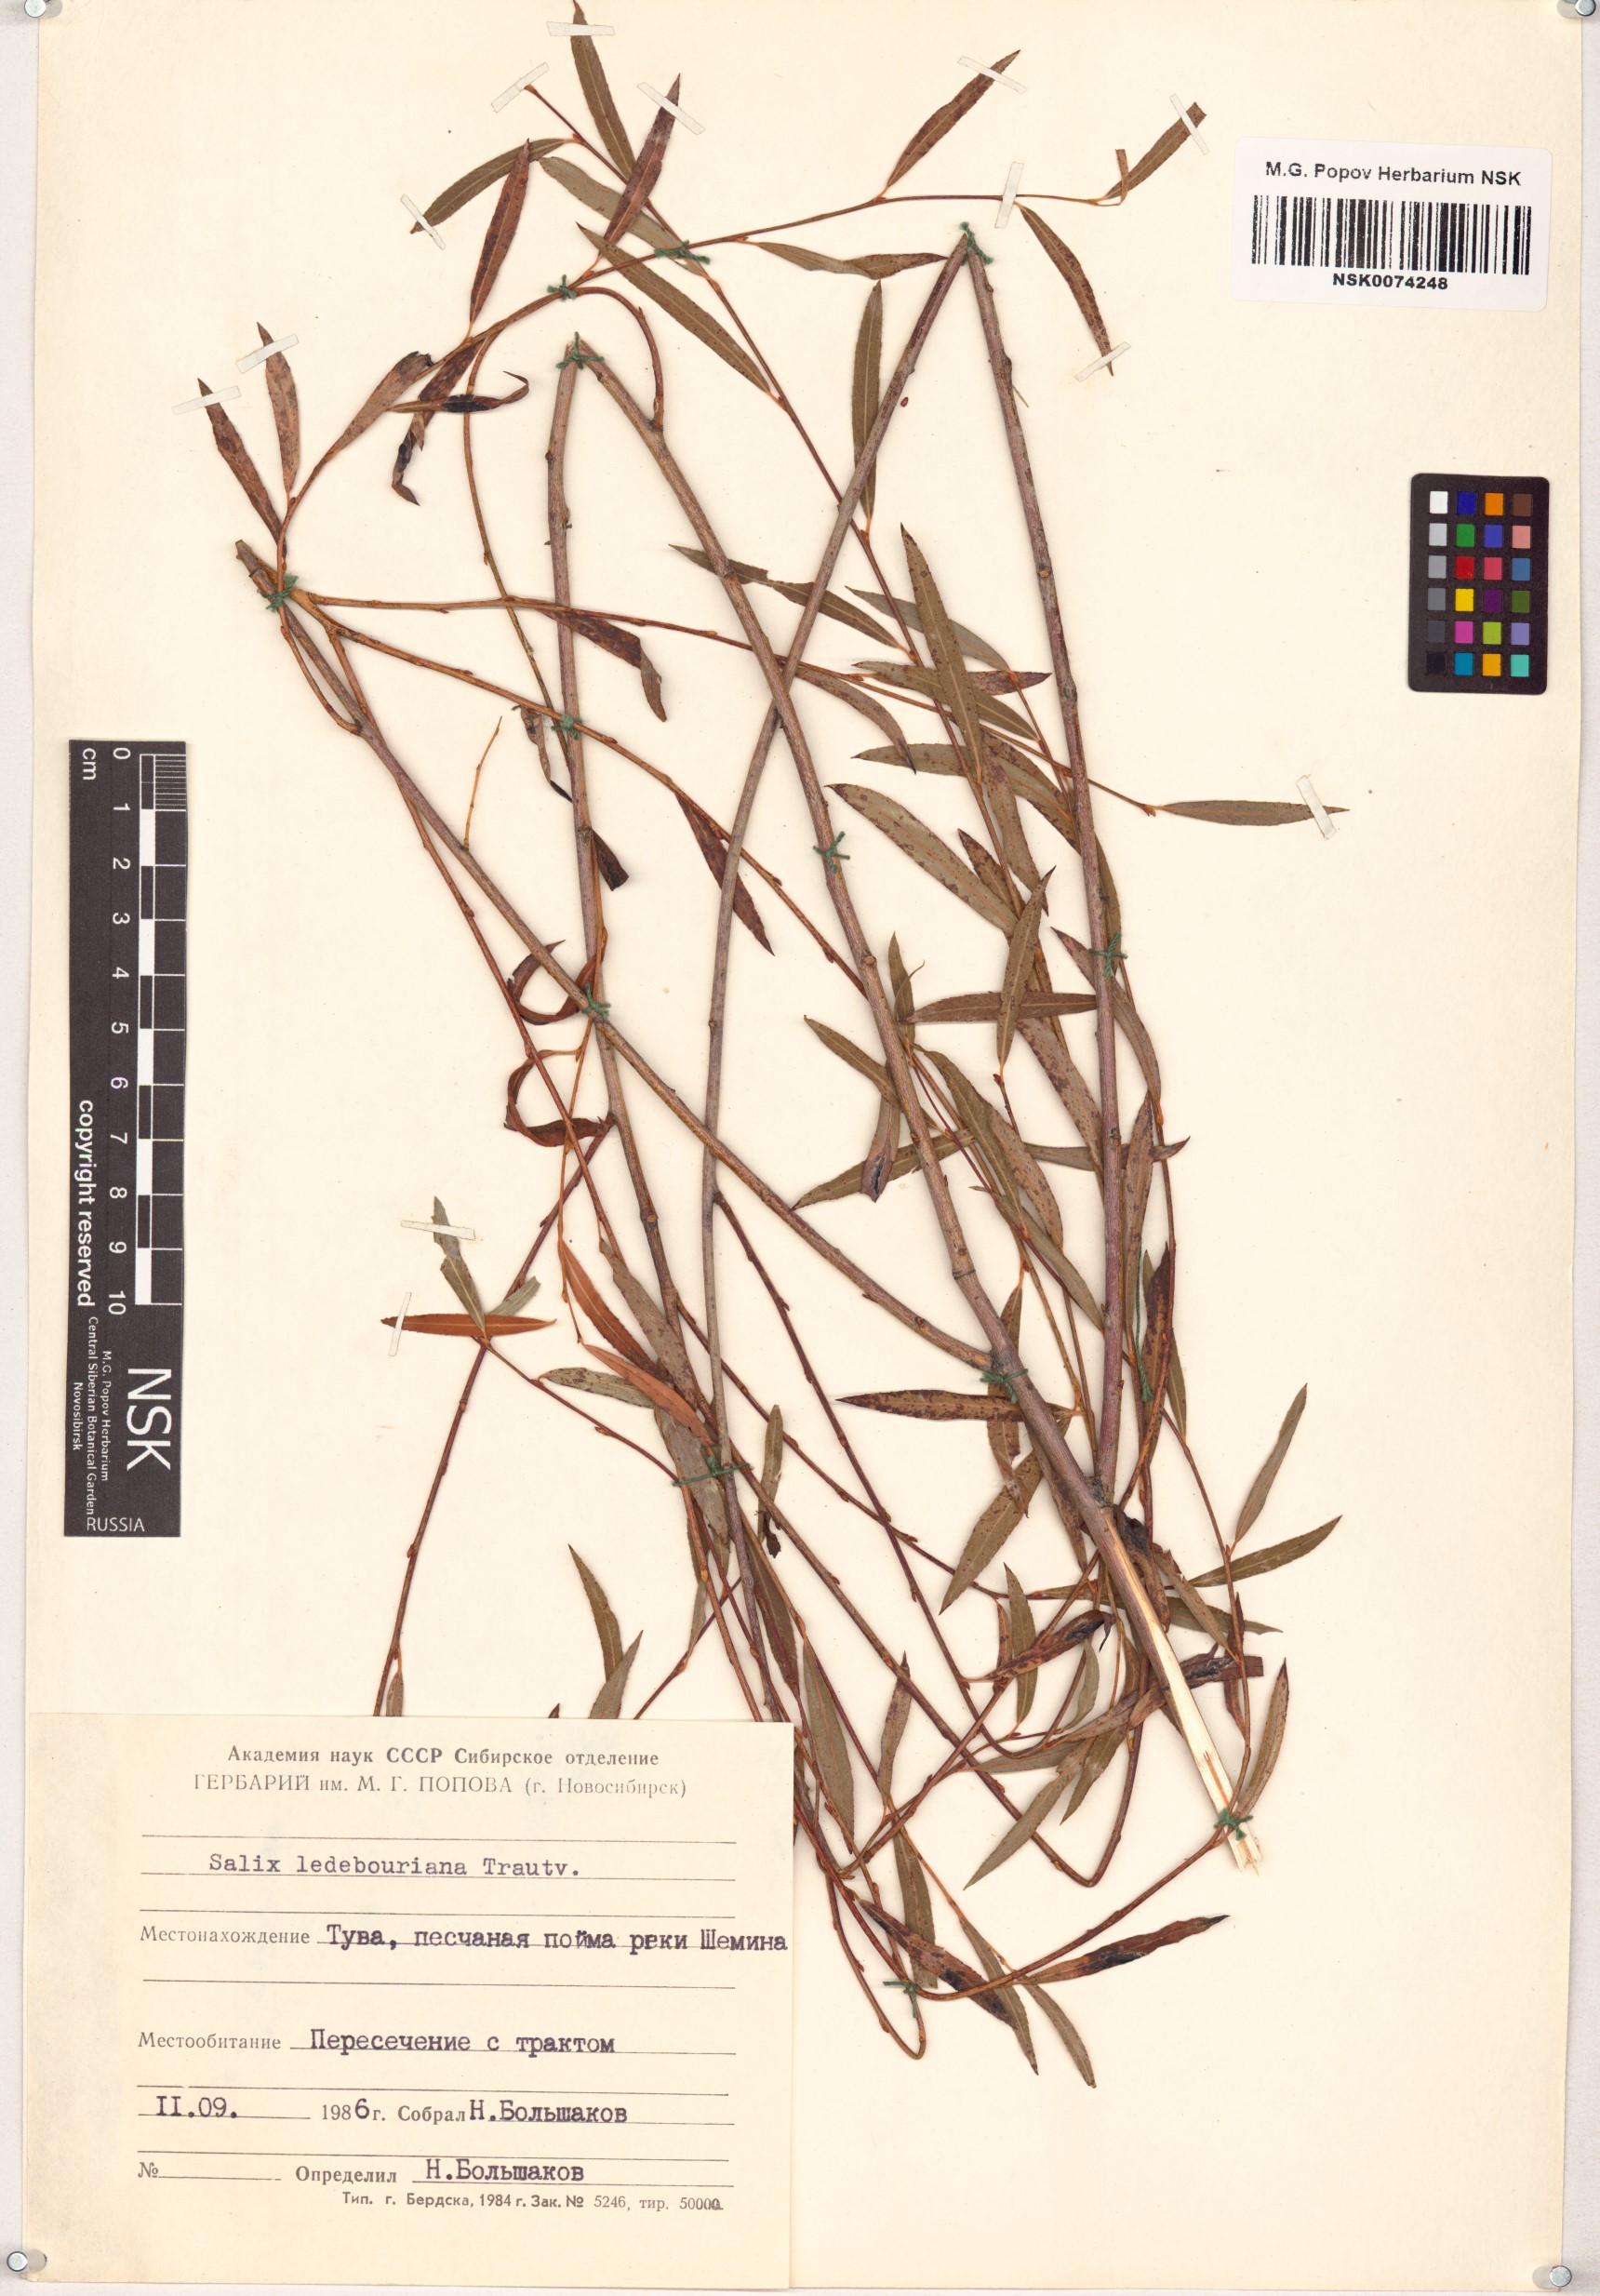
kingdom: Plantae
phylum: Tracheophyta
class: Magnoliopsida
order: Malpighiales
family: Salicaceae
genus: Salix
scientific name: Salix ledebouriana
